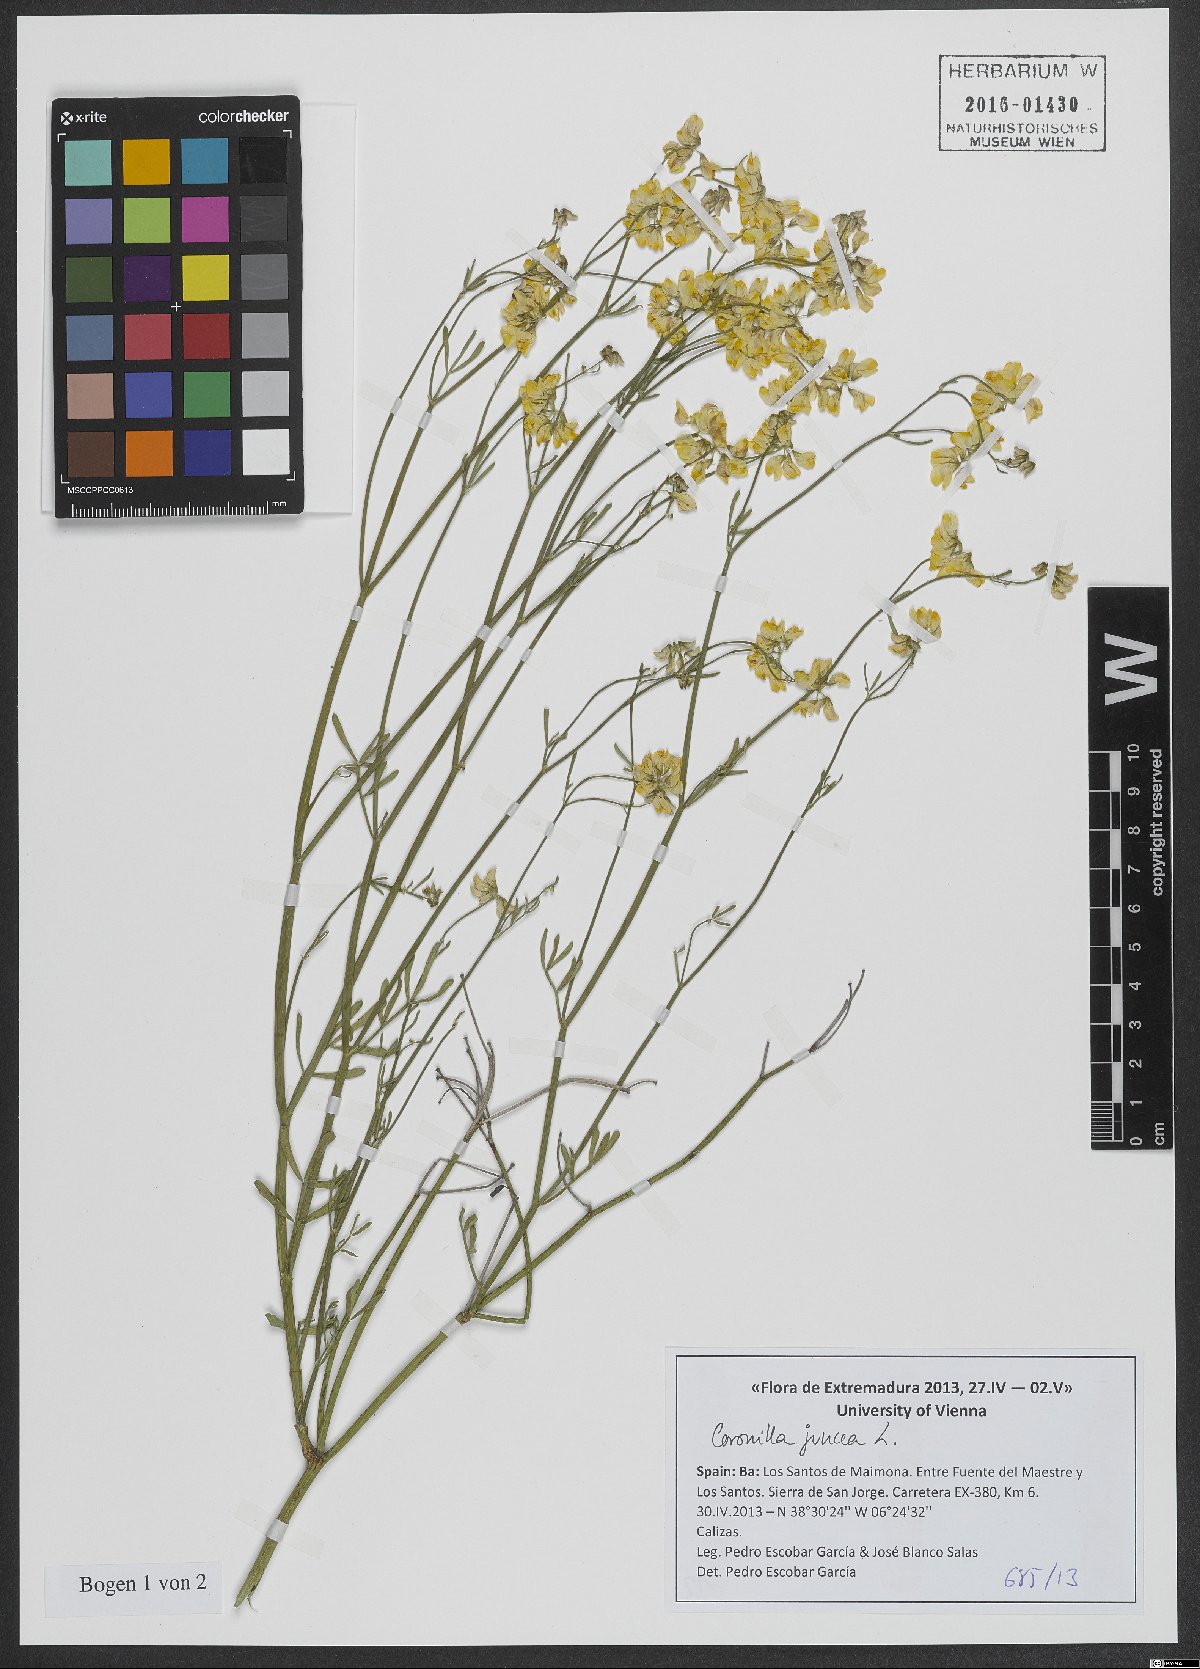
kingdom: Plantae
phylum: Tracheophyta
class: Magnoliopsida
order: Fabales
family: Fabaceae
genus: Coronilla
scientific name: Coronilla juncea
